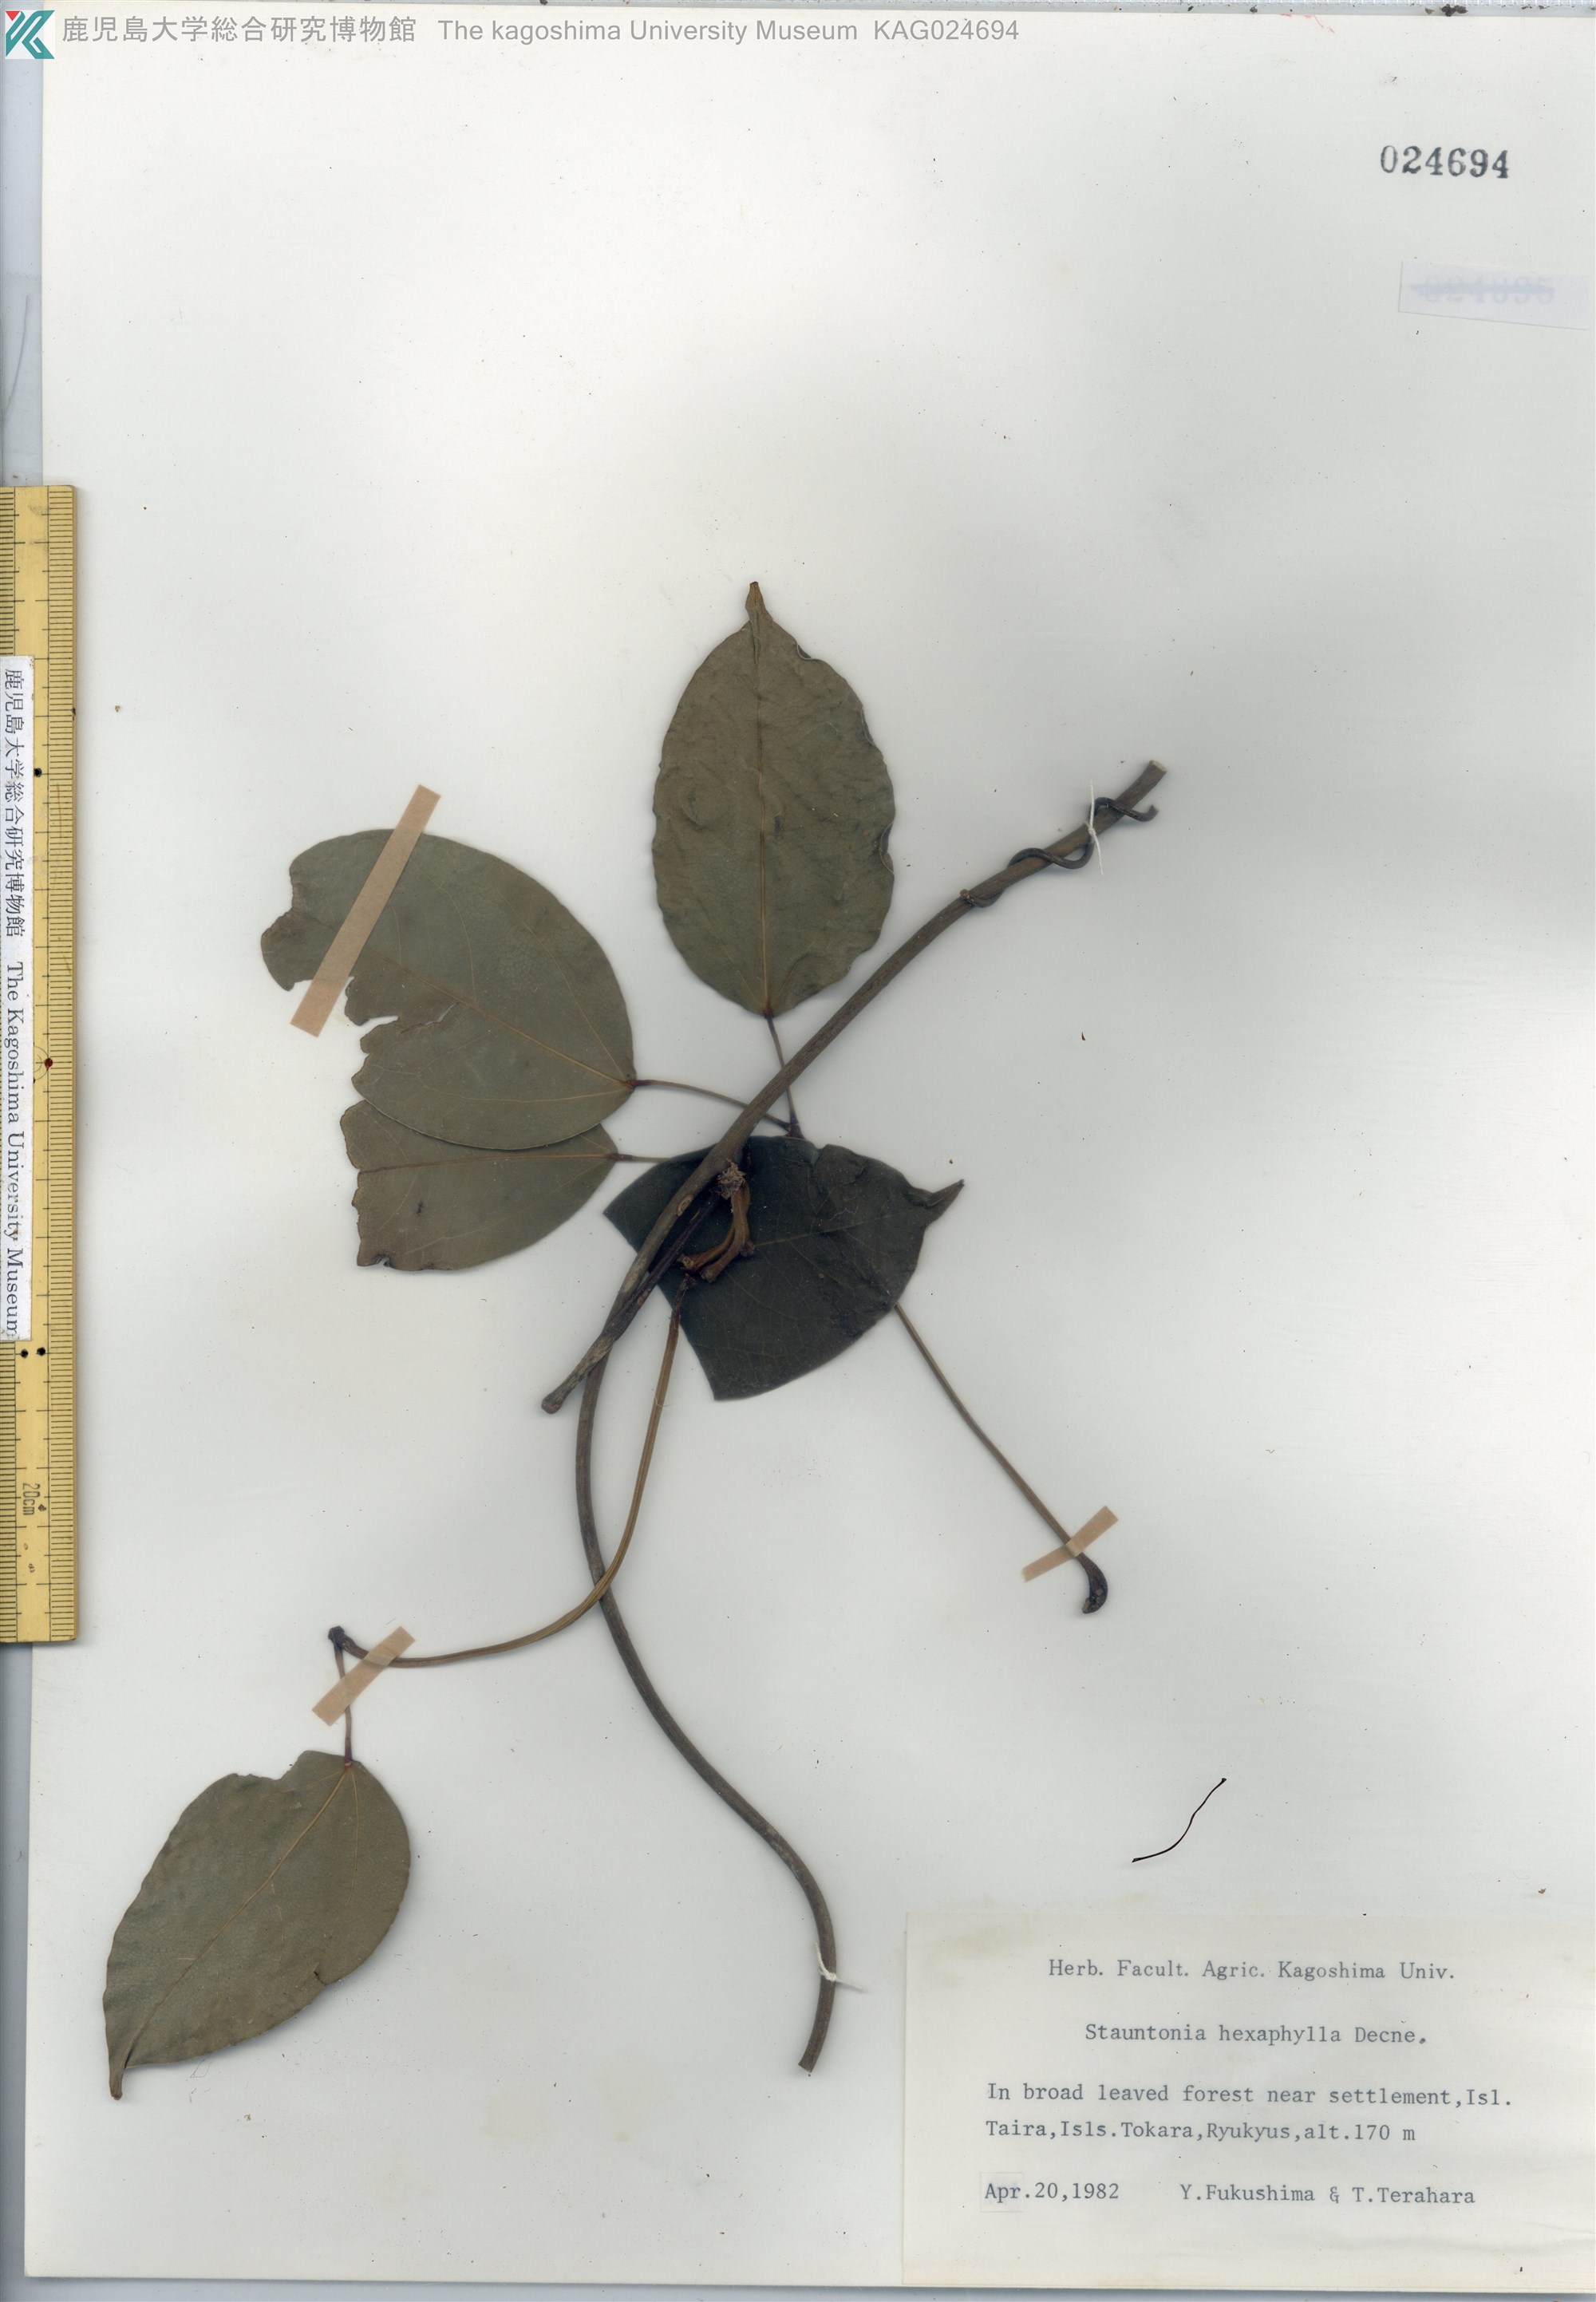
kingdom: Plantae
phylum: Tracheophyta
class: Magnoliopsida
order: Ranunculales
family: Lardizabalaceae
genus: Stauntonia
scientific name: Stauntonia hexaphylla
